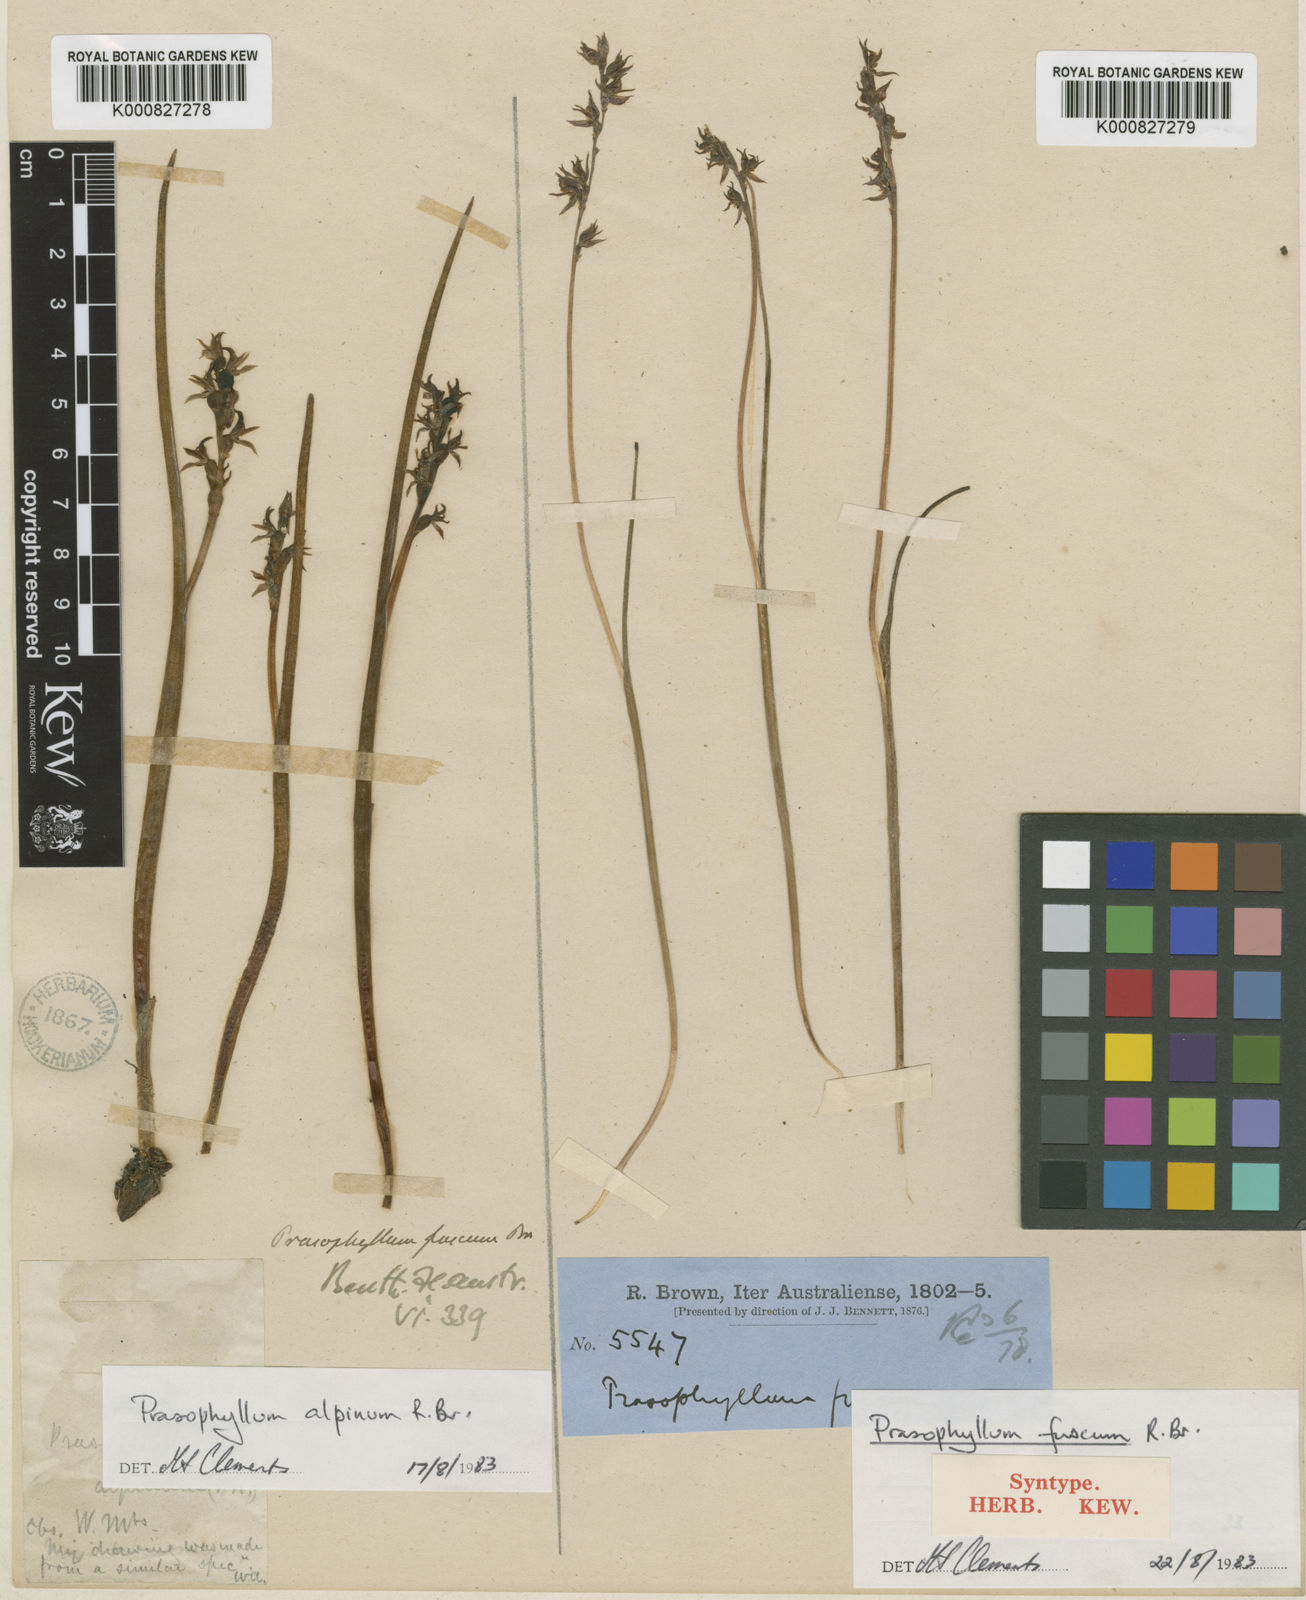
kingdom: Plantae
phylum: Tracheophyta
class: Liliopsida
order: Asparagales
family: Orchidaceae
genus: Prasophyllum
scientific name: Prasophyllum fuscum
